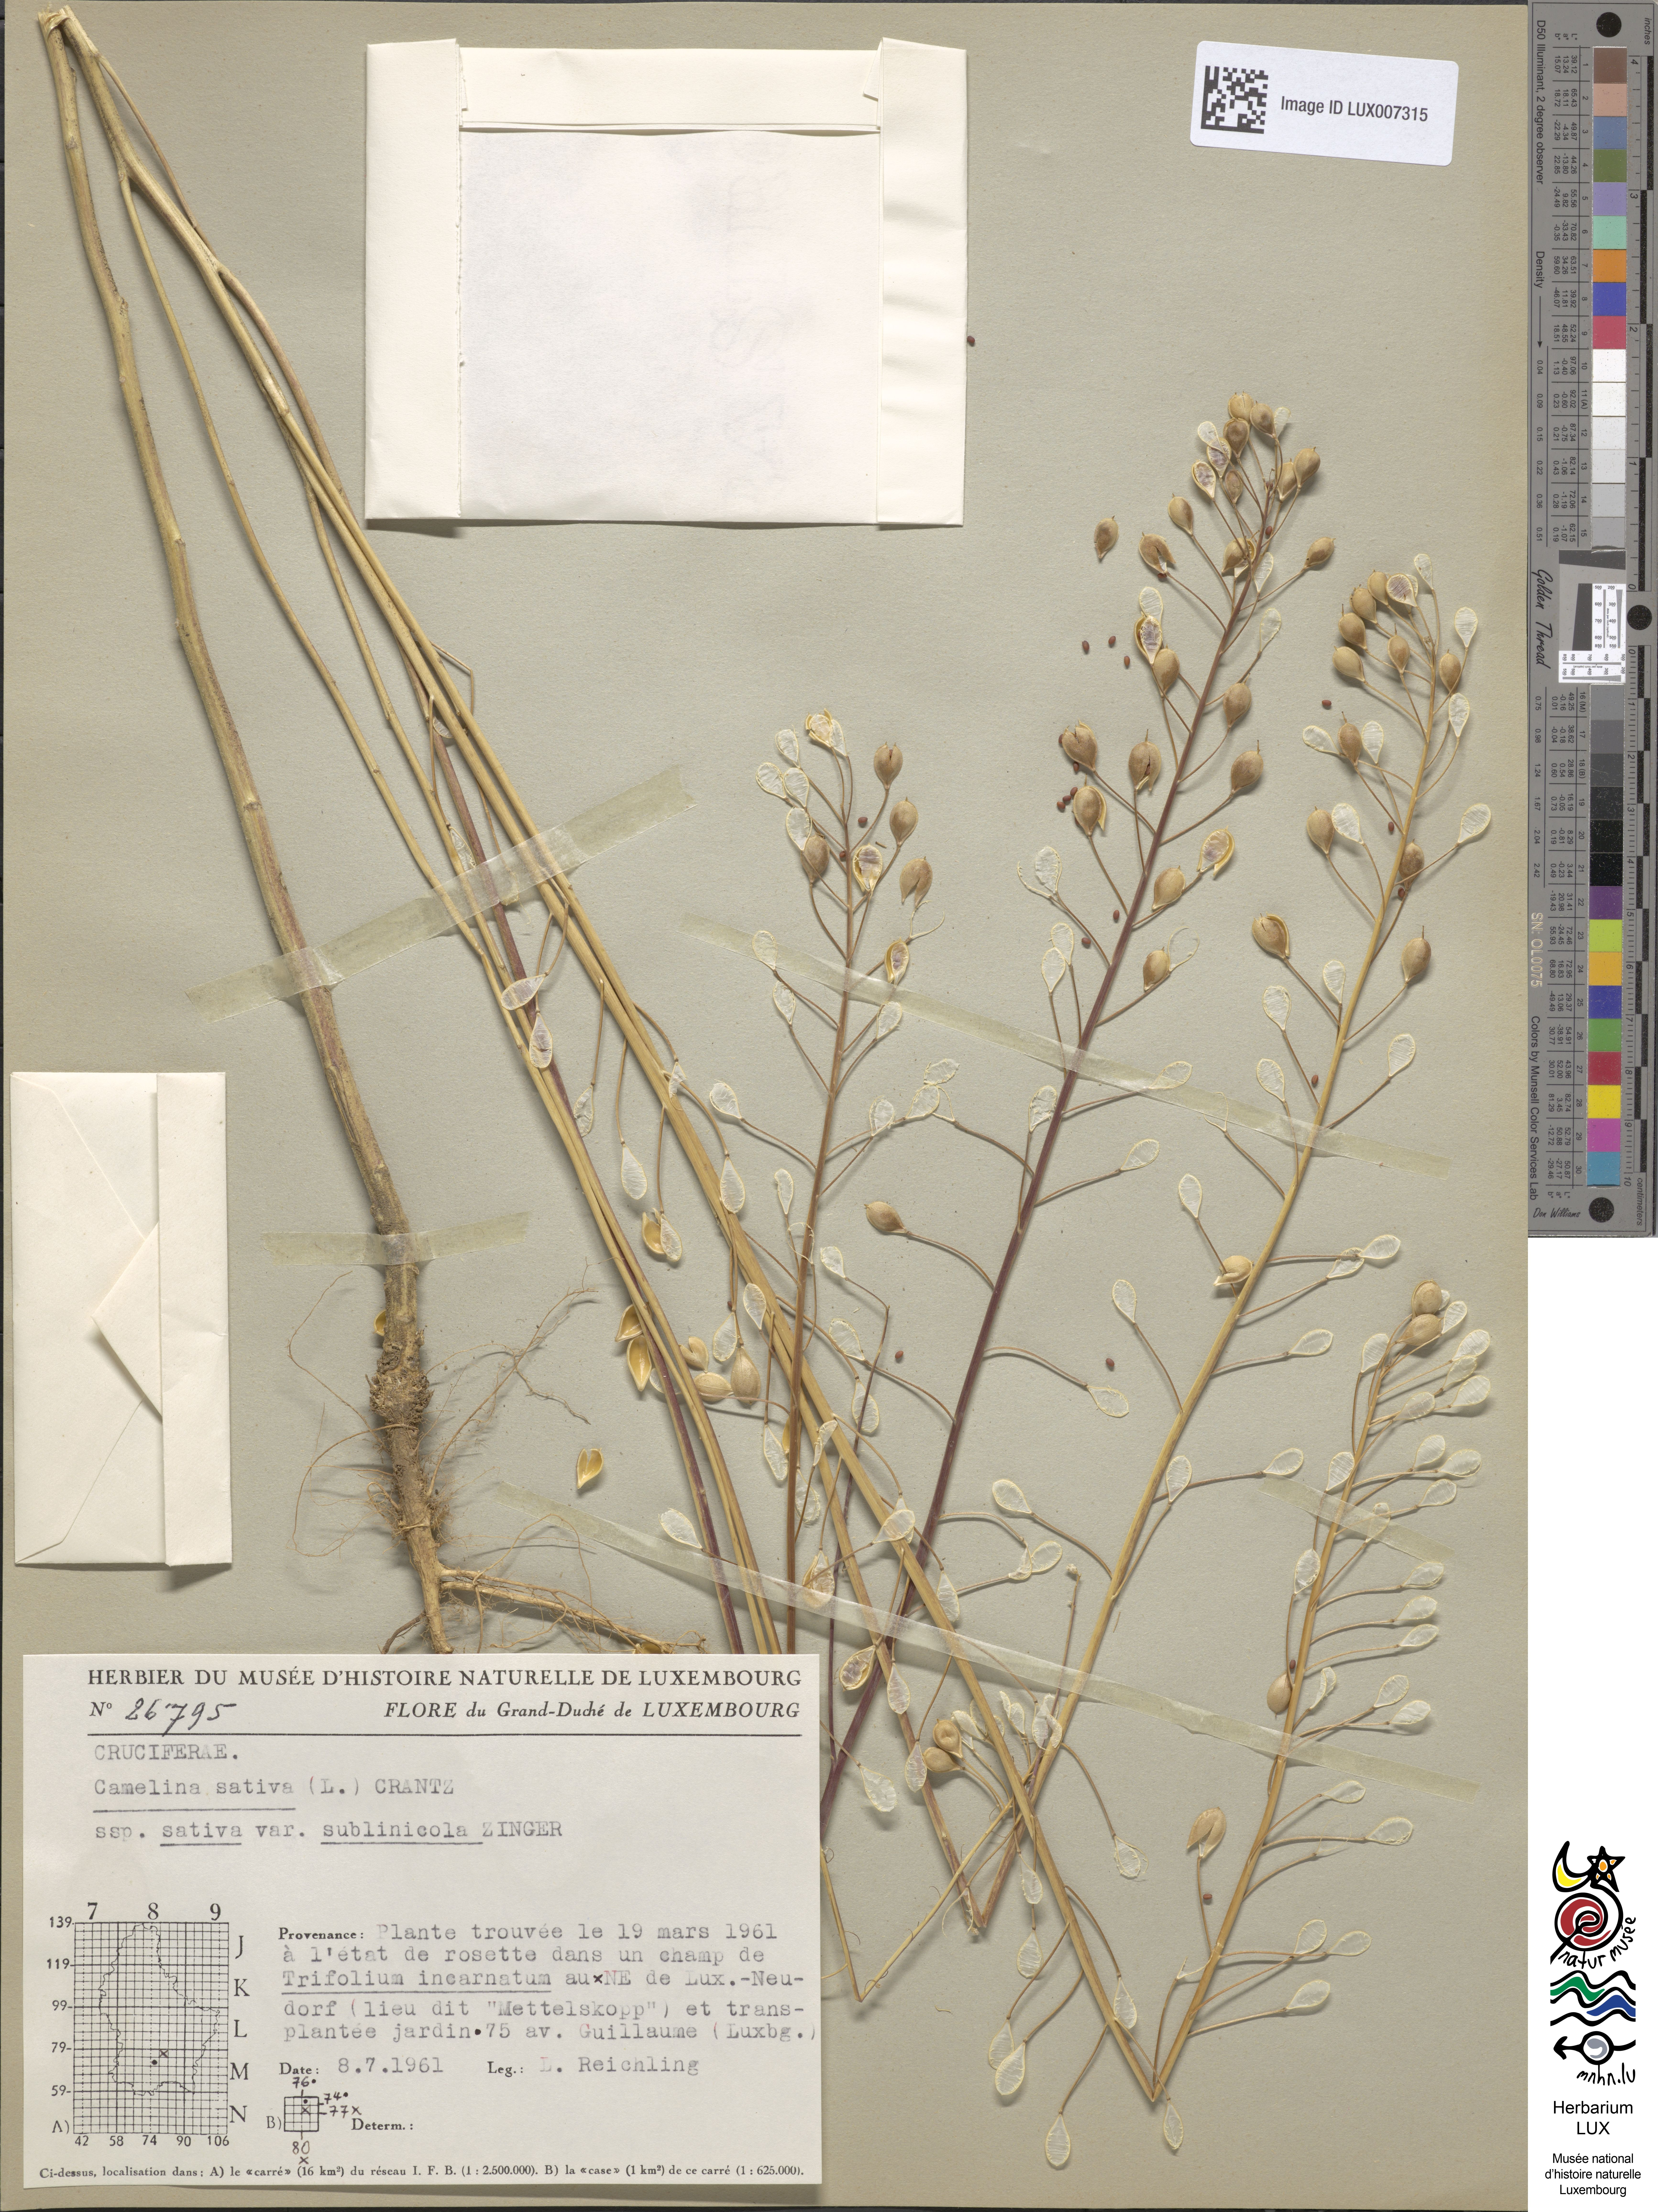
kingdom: Plantae
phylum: Tracheophyta
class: Magnoliopsida
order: Brassicales
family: Brassicaceae
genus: Camelina
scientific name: Camelina alyssum
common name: Gold-of-pleasure
